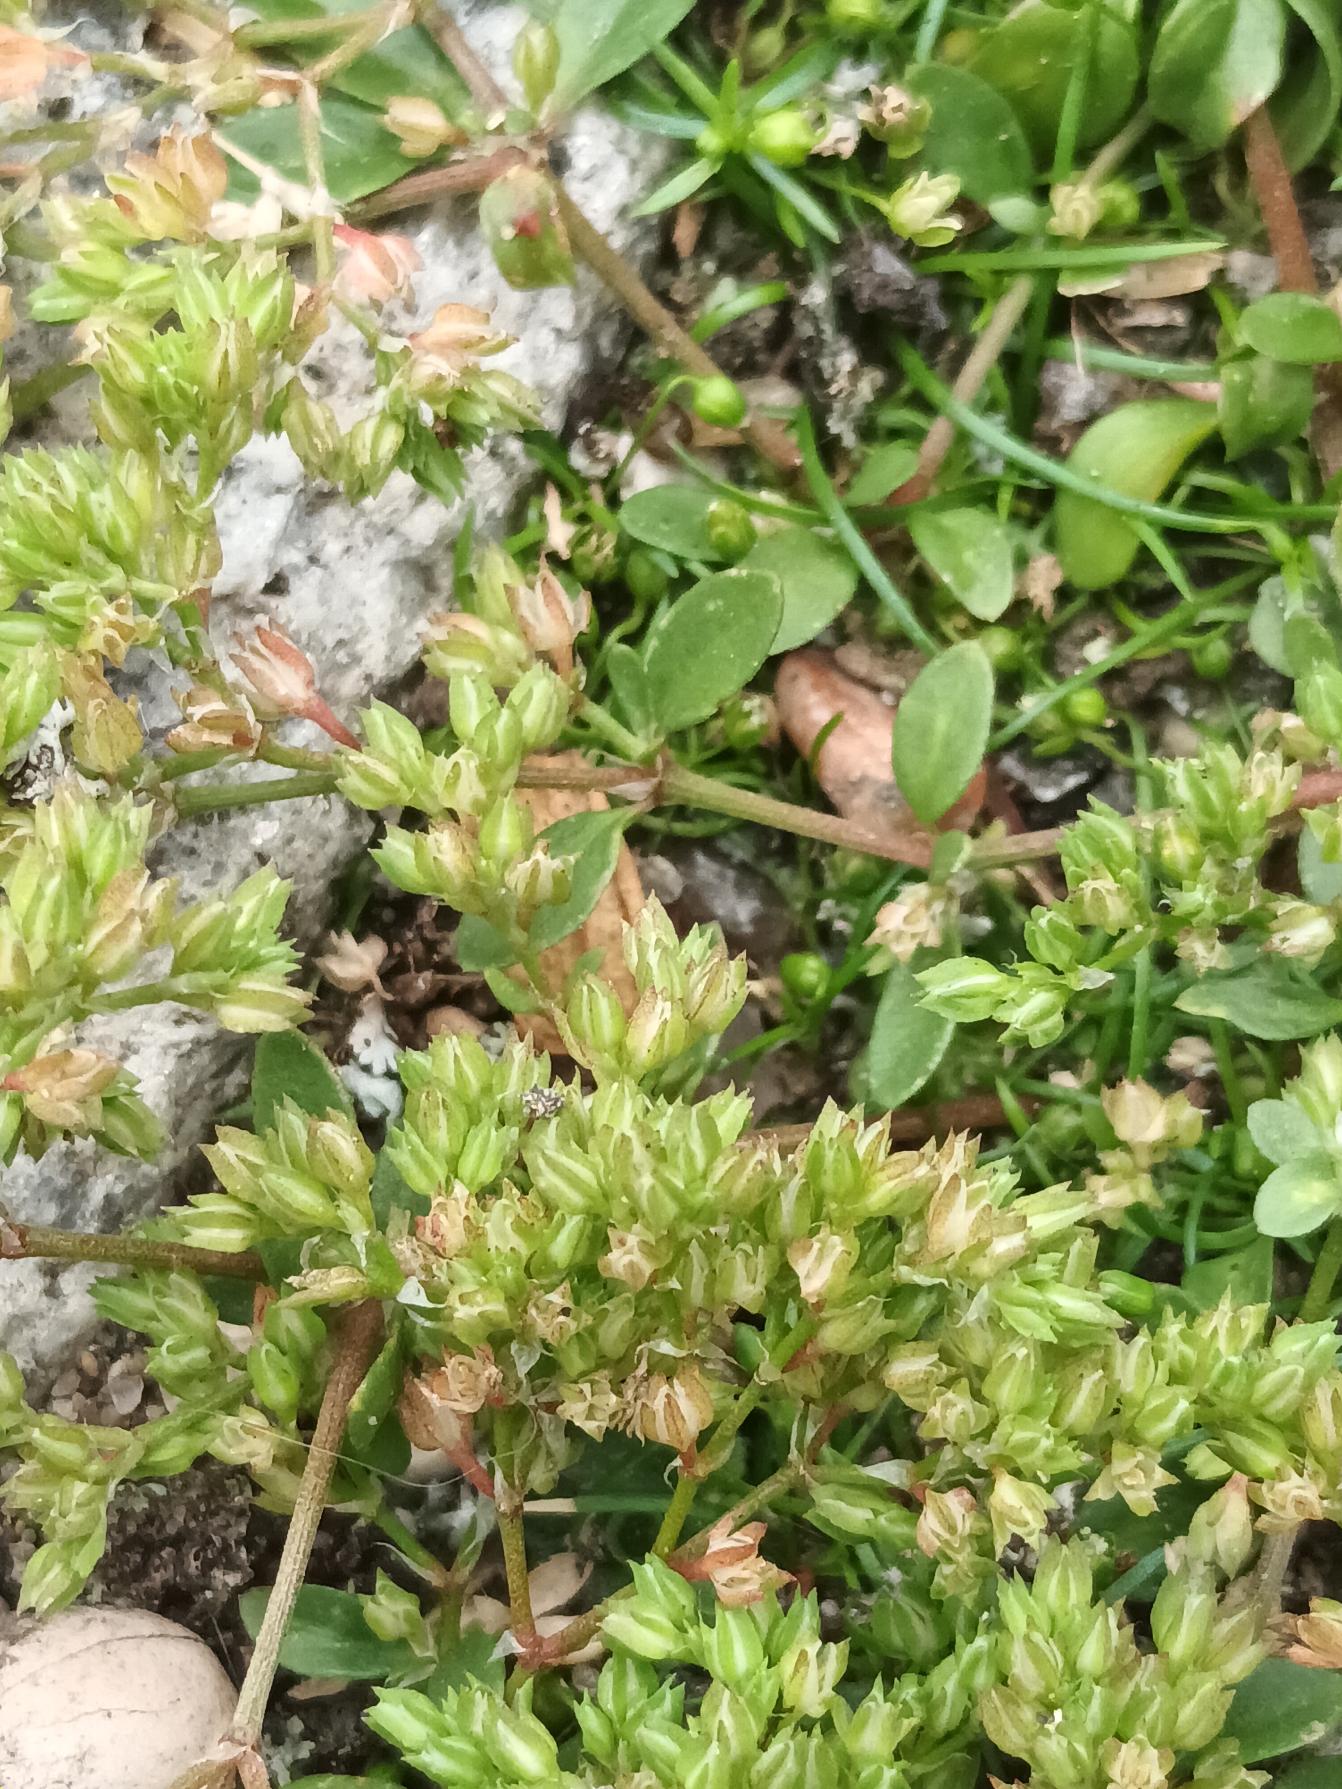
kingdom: Plantae
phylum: Tracheophyta
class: Magnoliopsida
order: Caryophyllales
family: Caryophyllaceae
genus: Polycarpon
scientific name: Polycarpon tetraphyllum
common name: Firbladet mangefrø
